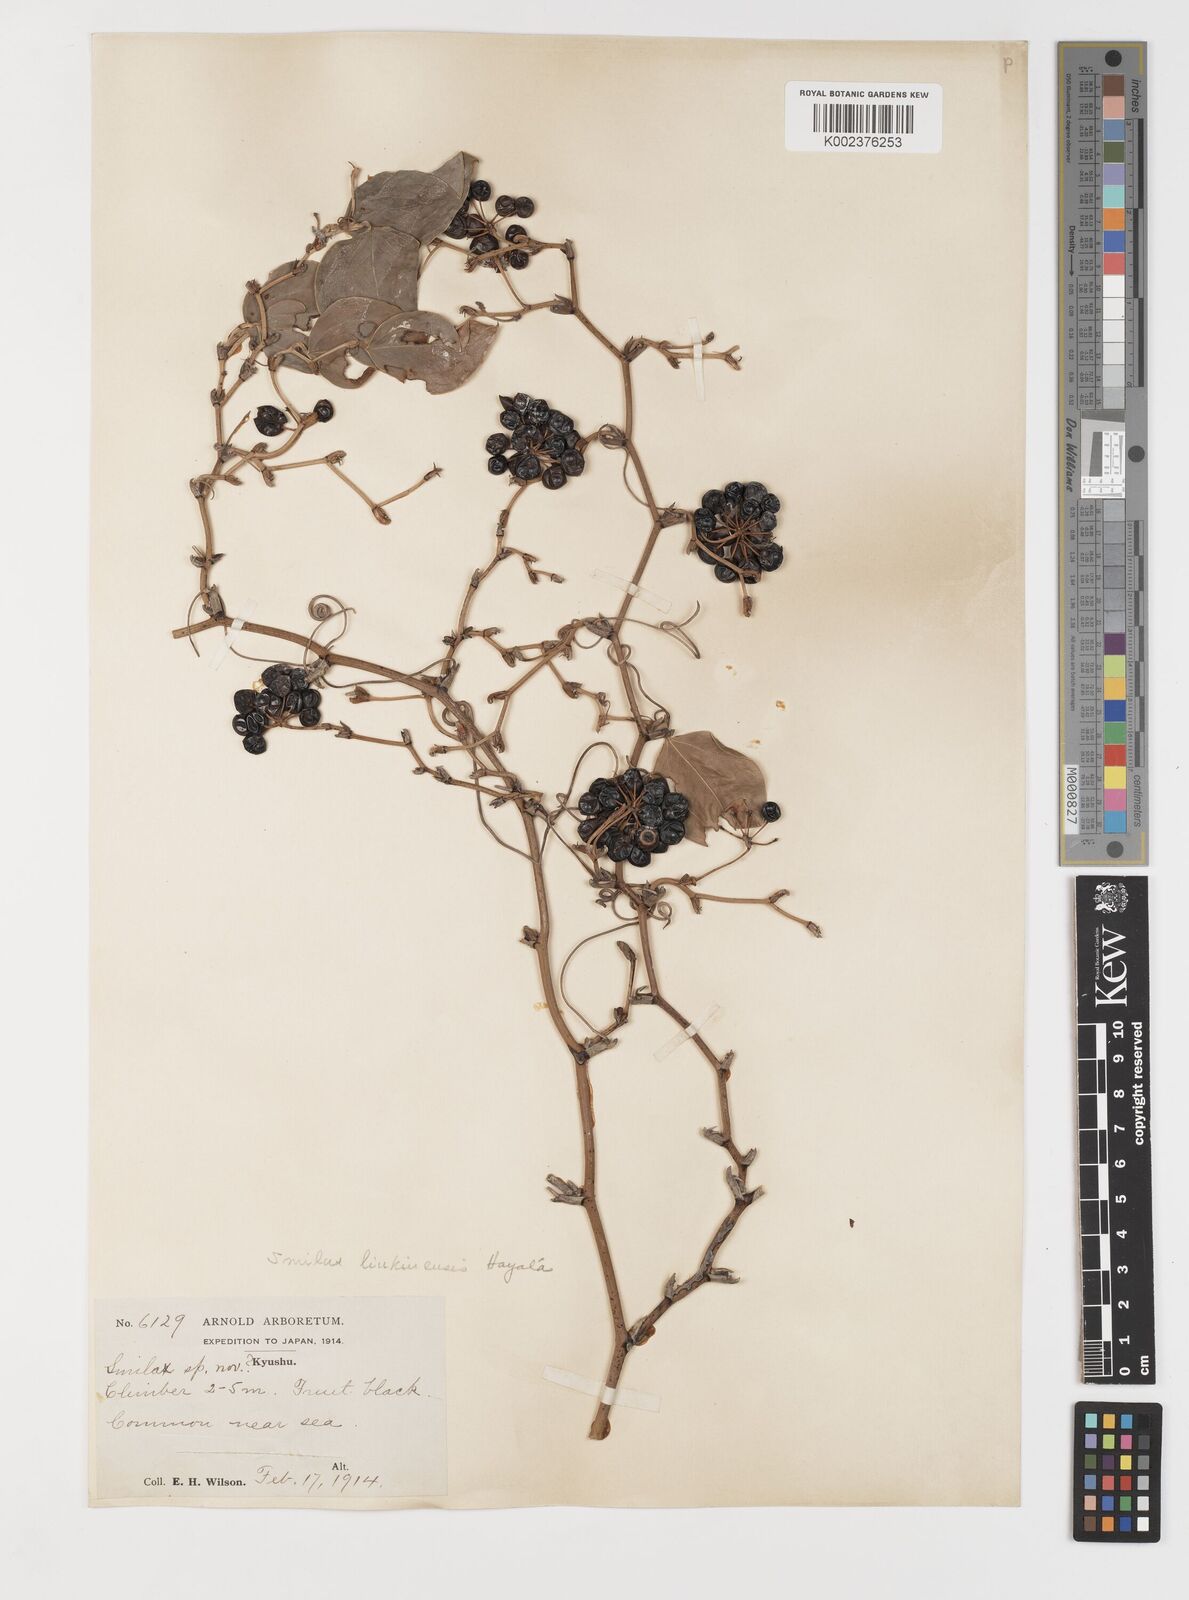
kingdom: Plantae
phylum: Tracheophyta
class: Liliopsida
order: Liliales
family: Smilacaceae
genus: Smilax
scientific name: Smilax china
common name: Chinaroot
